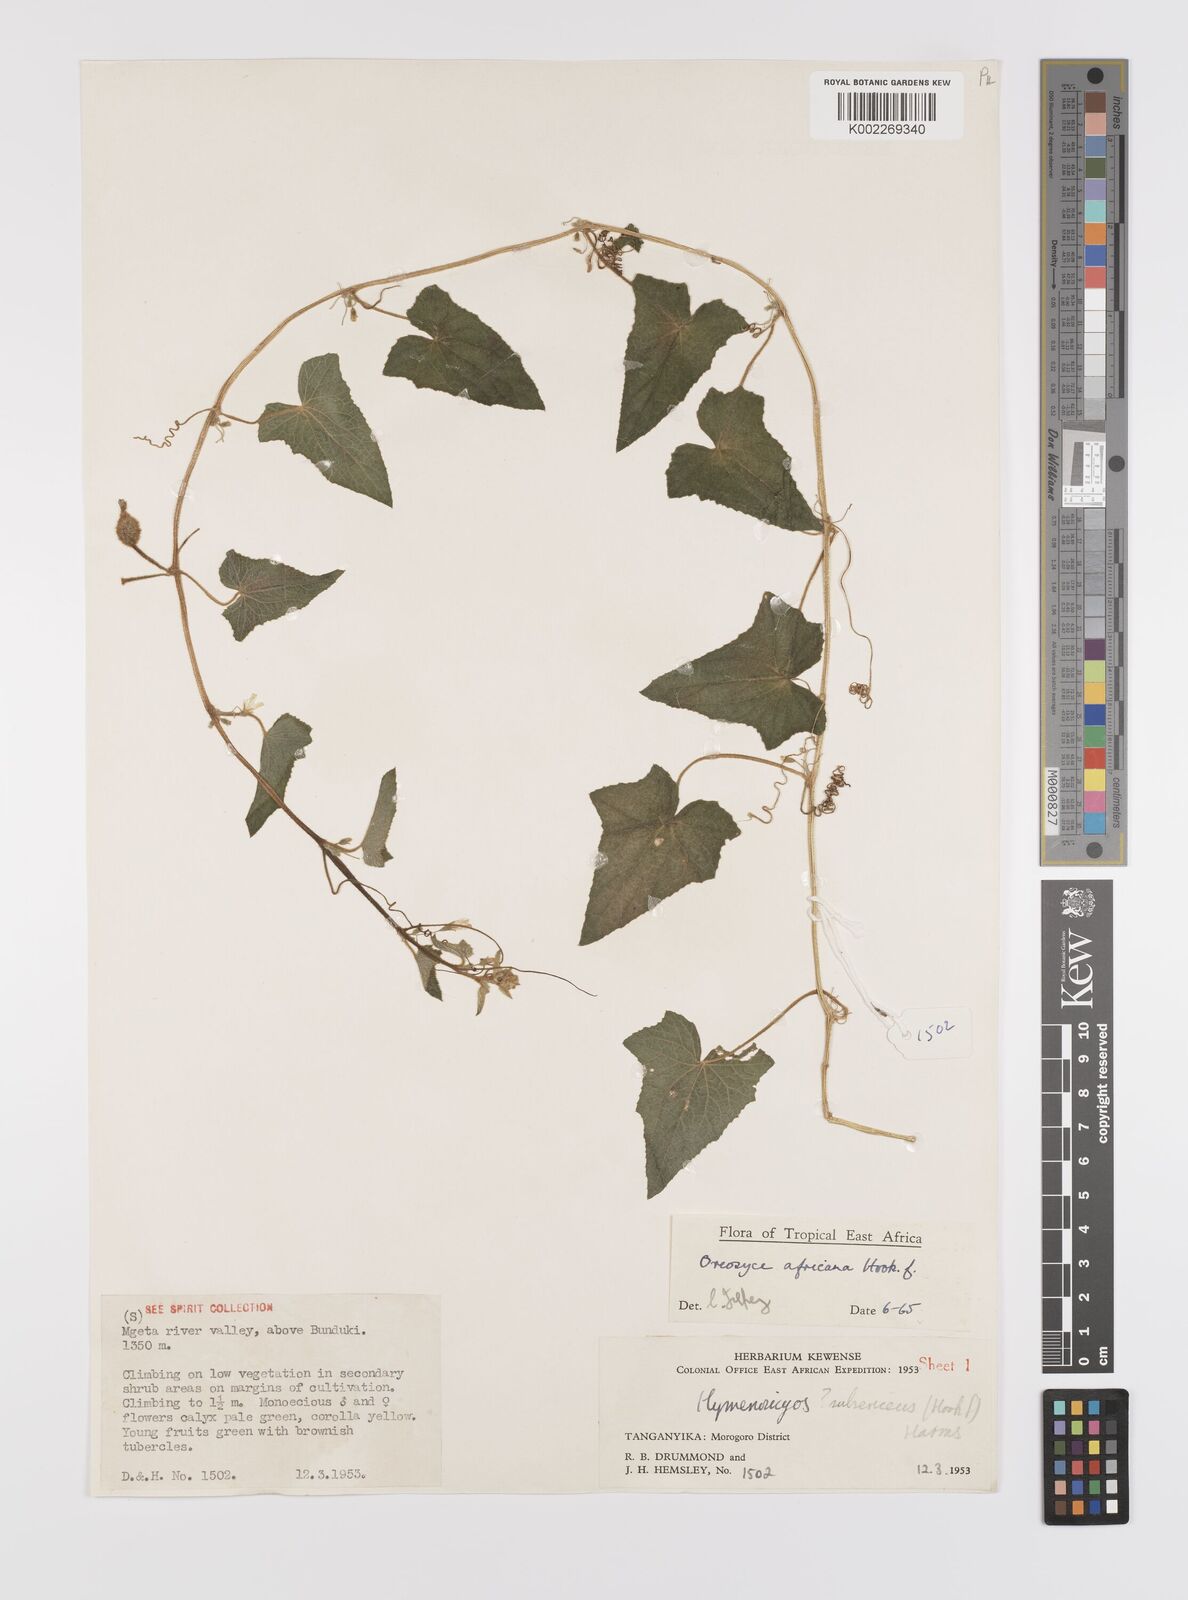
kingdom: Plantae
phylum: Tracheophyta
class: Magnoliopsida
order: Cucurbitales
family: Cucurbitaceae
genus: Cucumis
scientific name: Cucumis oreosyce
